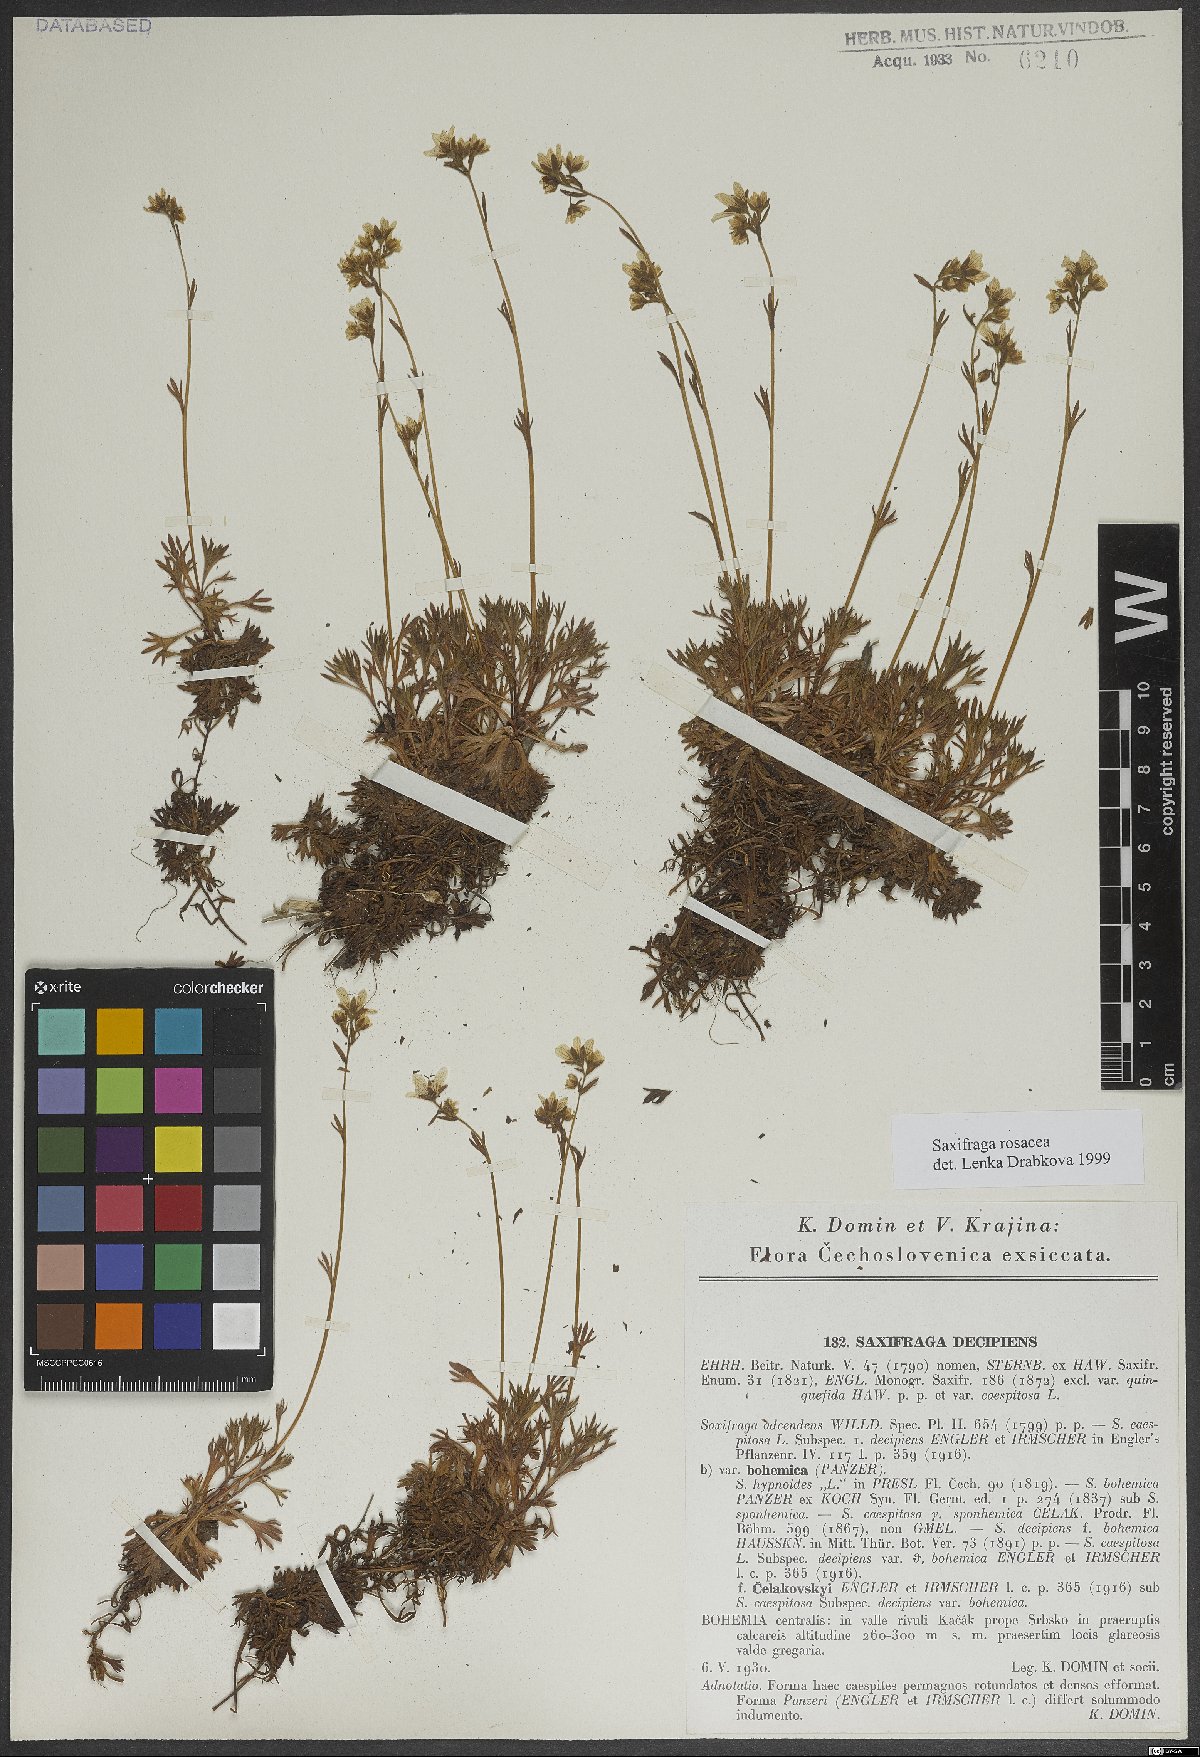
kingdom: Plantae
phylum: Tracheophyta
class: Magnoliopsida
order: Saxifragales
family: Saxifragaceae
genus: Saxifraga
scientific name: Saxifraga rosacea
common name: Irish saxifrage
